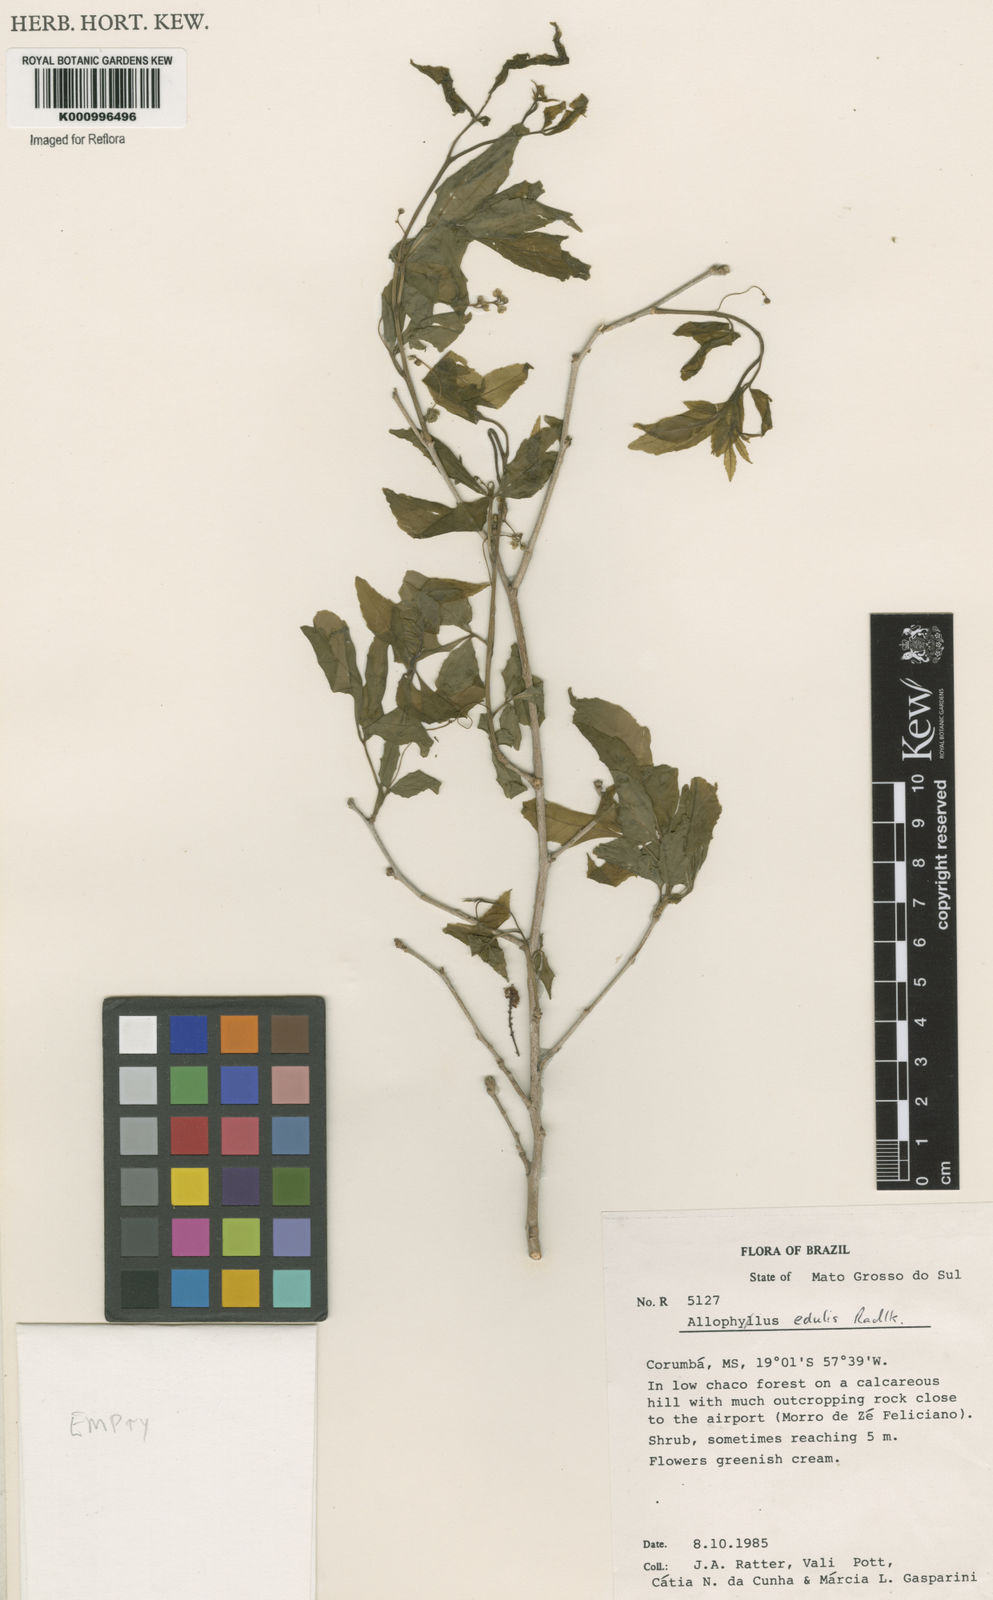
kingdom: Plantae
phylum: Tracheophyta
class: Magnoliopsida
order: Sapindales
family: Sapindaceae
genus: Allophylus
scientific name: Allophylus edulis
